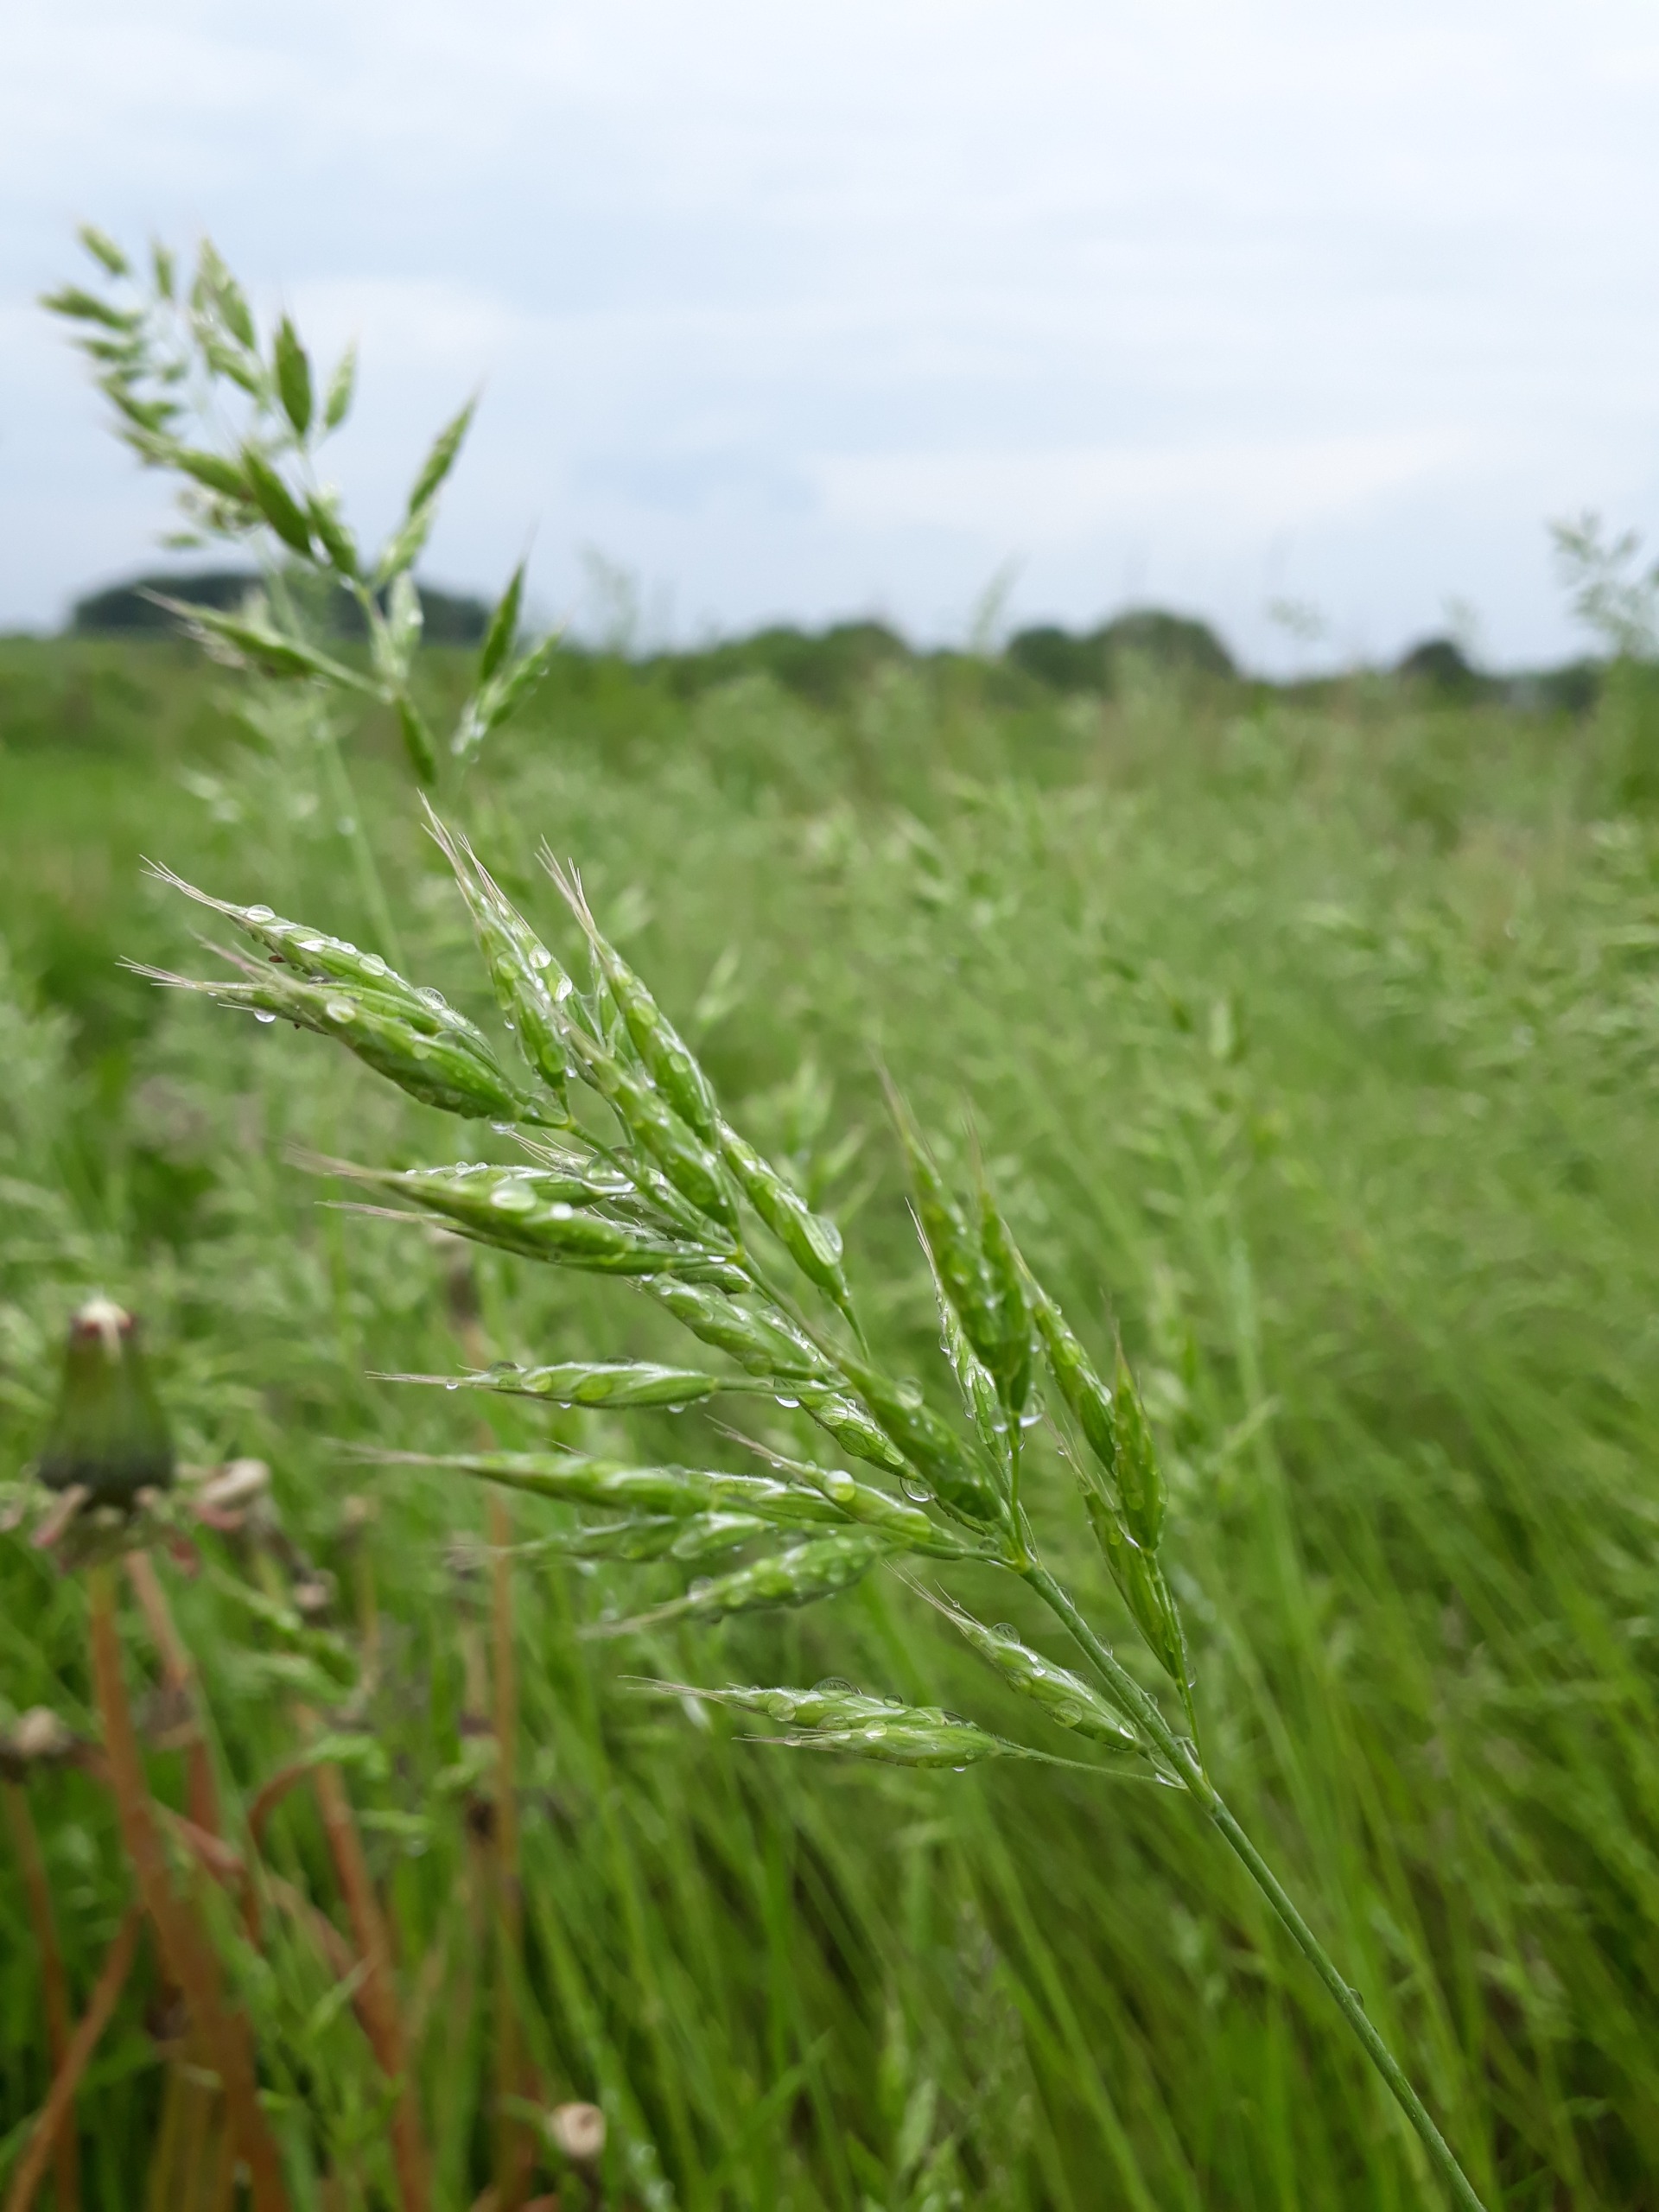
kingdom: Plantae
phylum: Tracheophyta
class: Liliopsida
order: Poales
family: Poaceae
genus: Bromus
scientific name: Bromus hordeaceus
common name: Blød hejre
